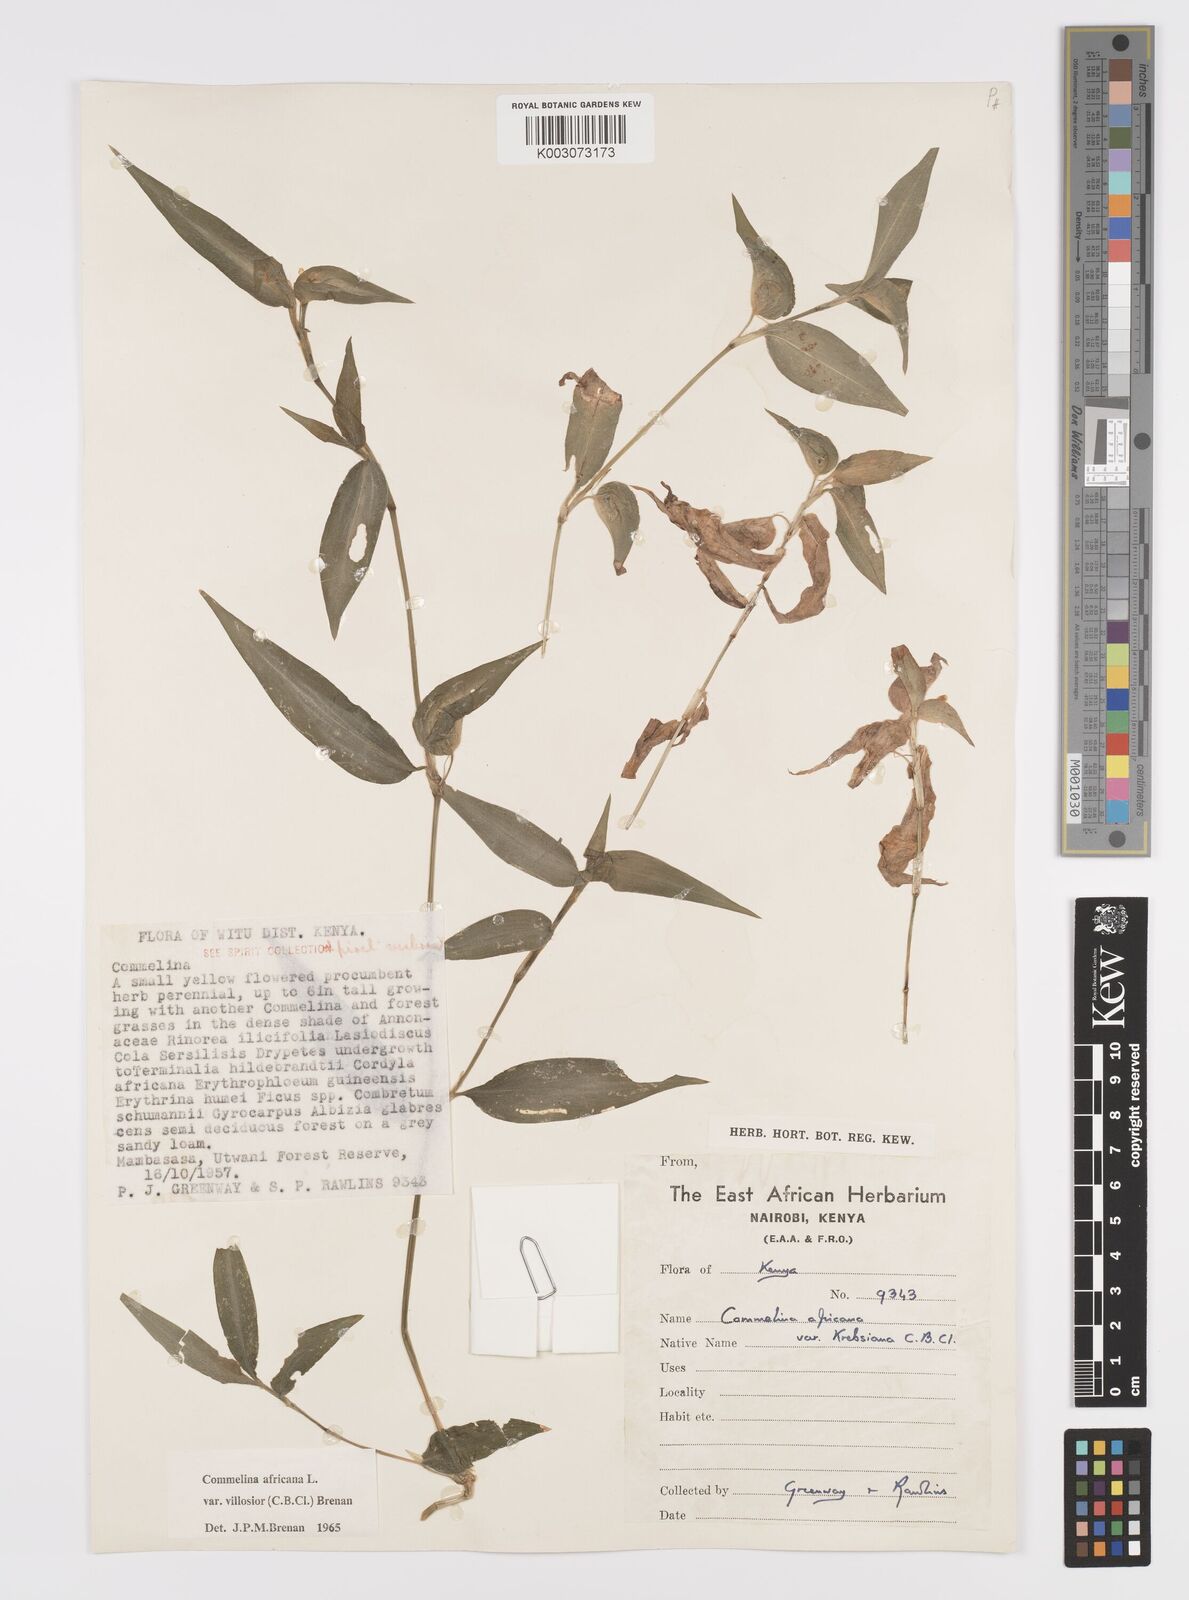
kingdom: Plantae
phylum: Tracheophyta
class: Liliopsida
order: Commelinales
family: Commelinaceae
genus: Commelina
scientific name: Commelina africana
